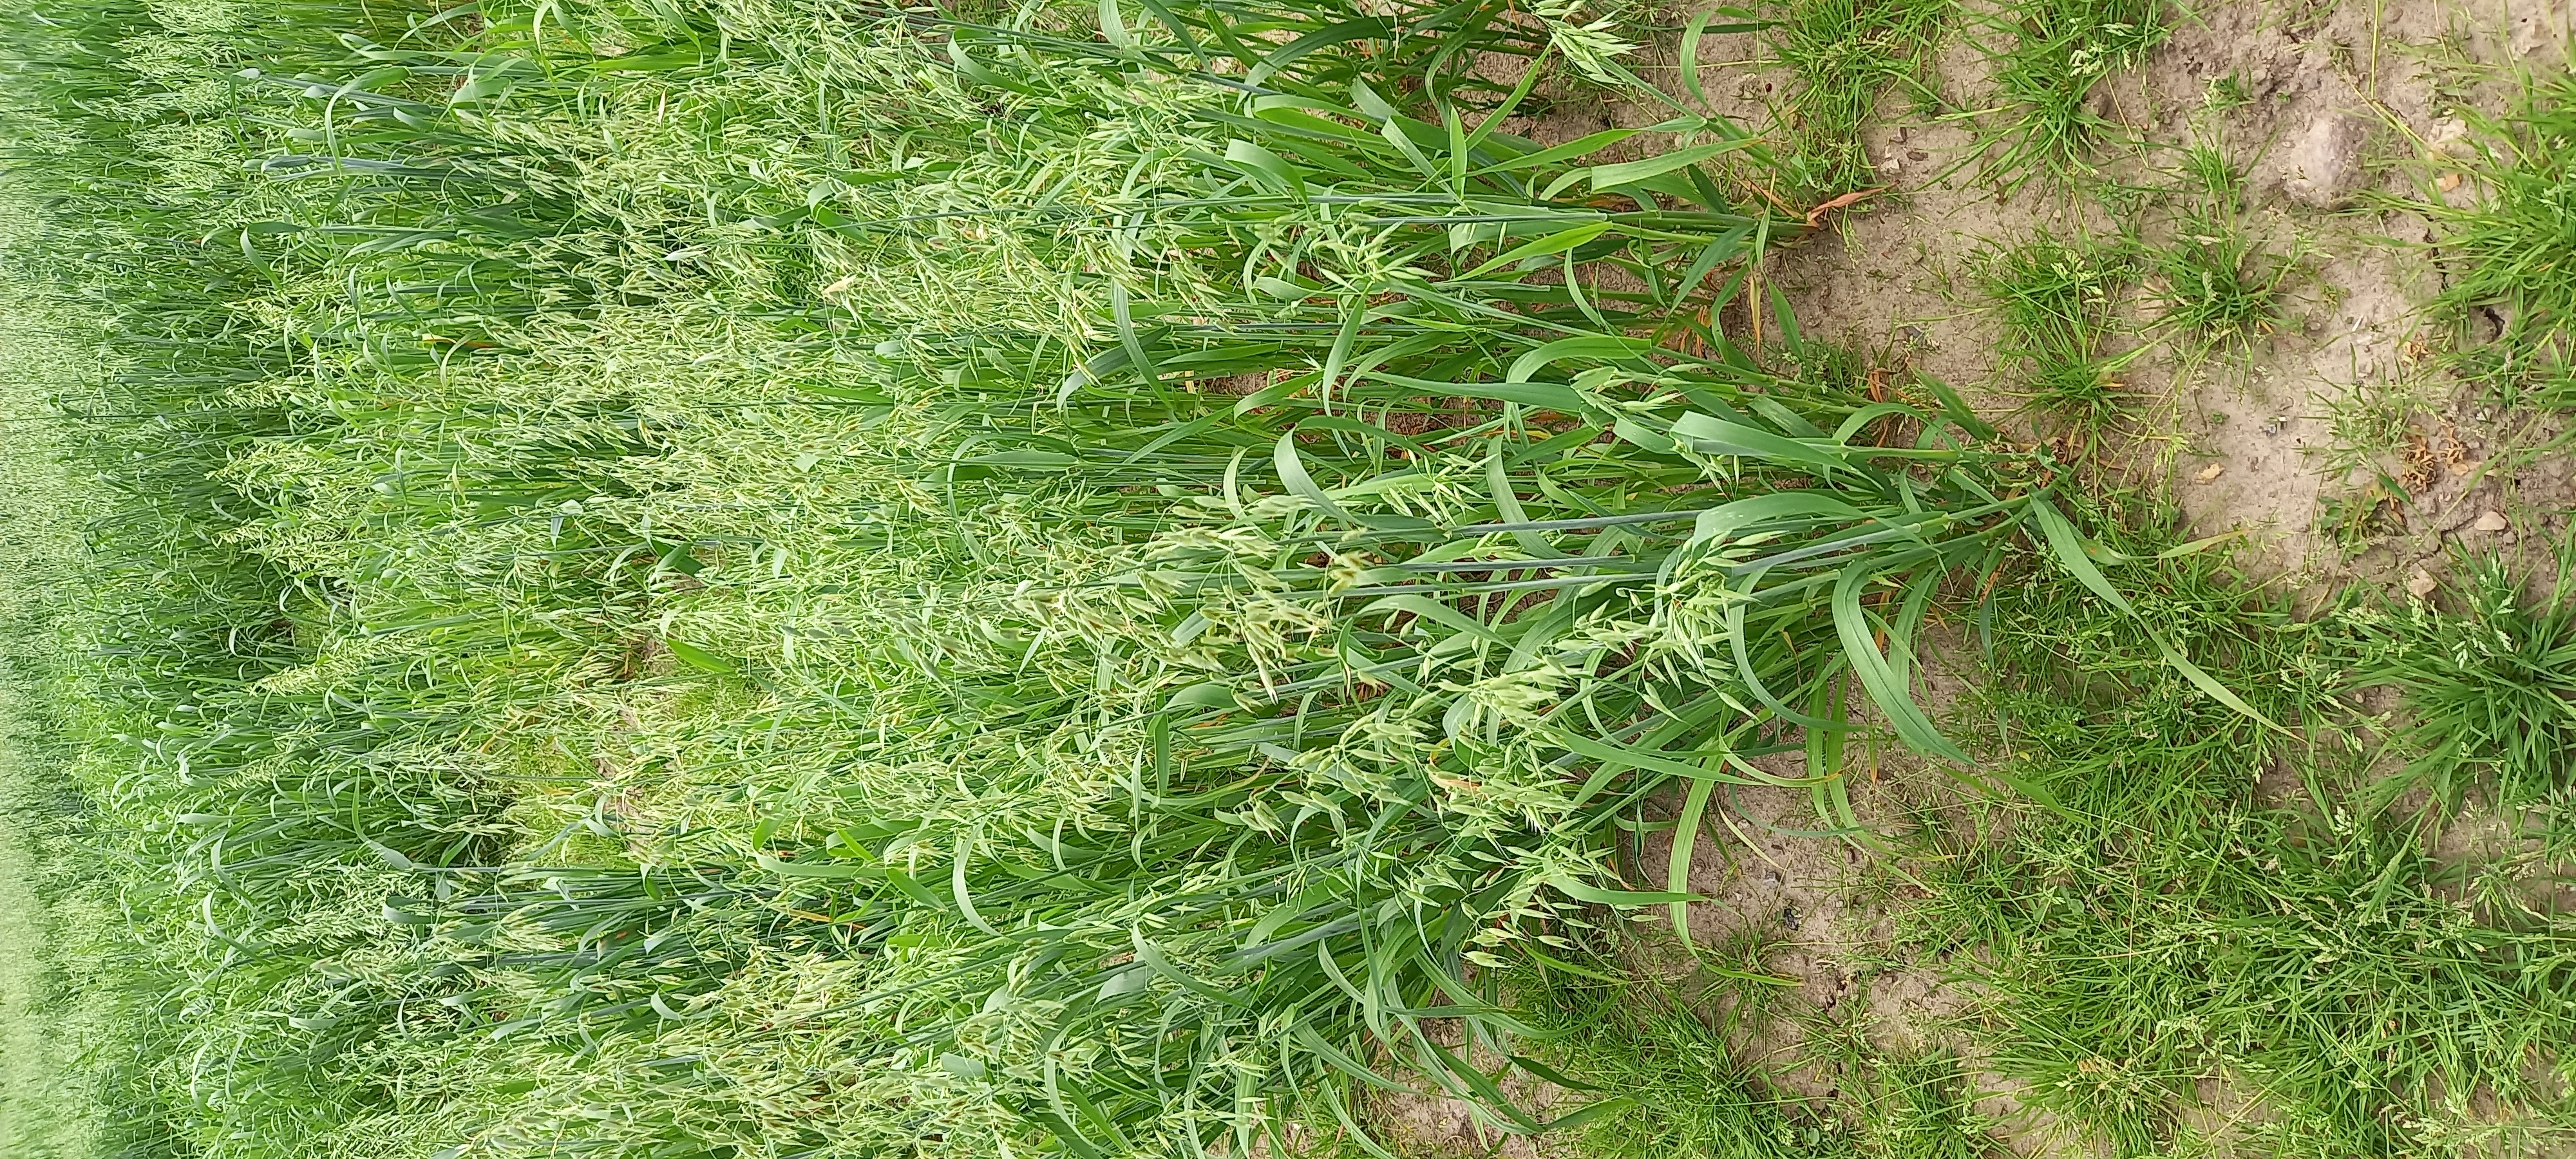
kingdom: Plantae
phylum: Tracheophyta
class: Liliopsida
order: Poales
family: Poaceae
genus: Avena
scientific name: Avena sativa
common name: Oat
